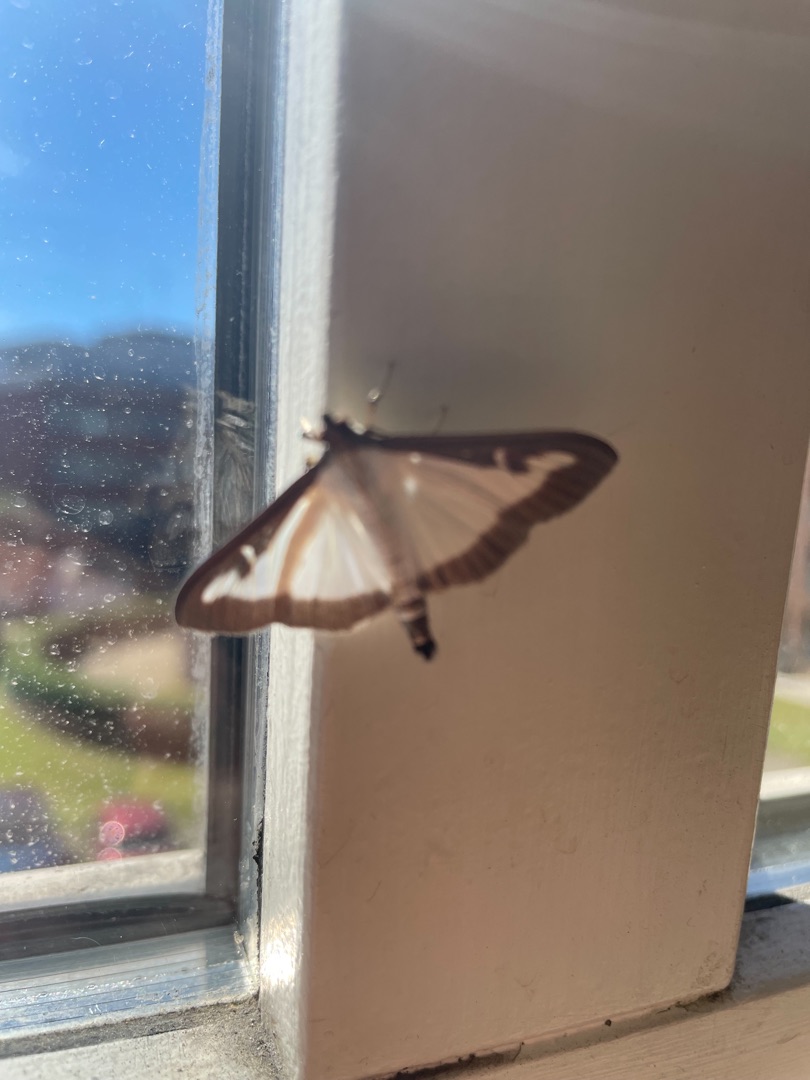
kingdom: Animalia
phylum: Arthropoda
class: Insecta
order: Lepidoptera
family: Crambidae
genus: Cydalima
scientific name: Cydalima perspectalis
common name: Buksbomhalvmøl
